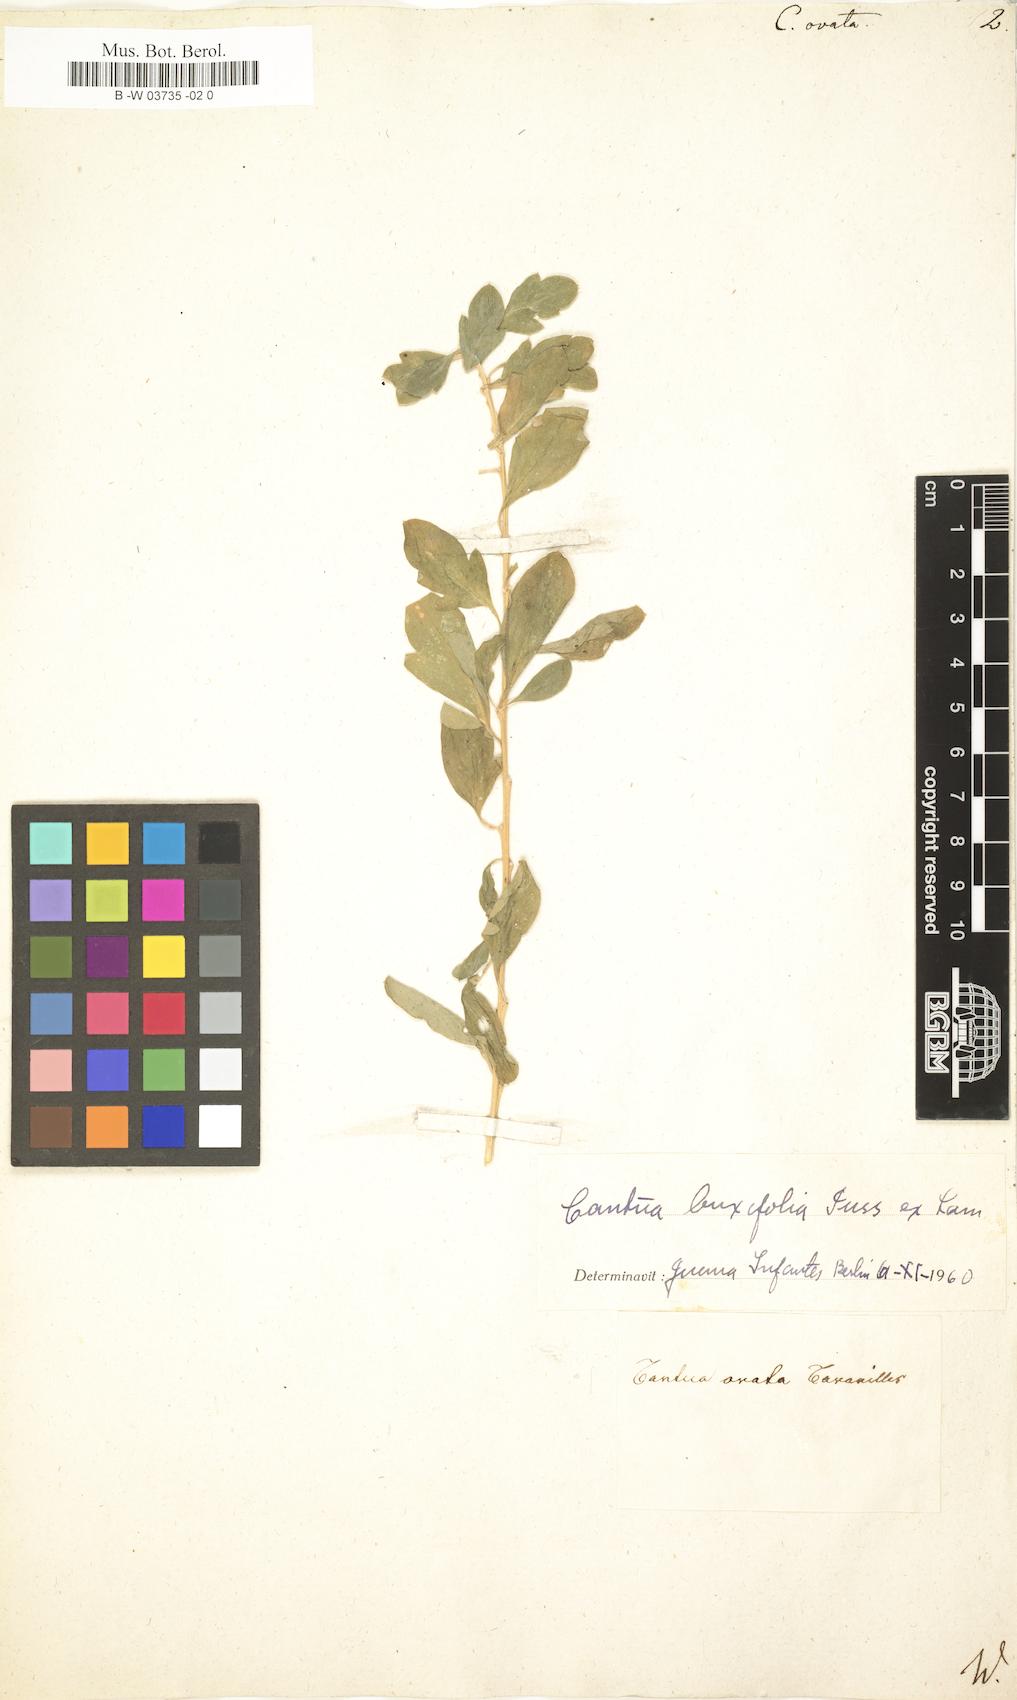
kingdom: Plantae
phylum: Tracheophyta
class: Magnoliopsida
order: Ericales
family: Polemoniaceae
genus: Cantua
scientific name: Cantua ovata
